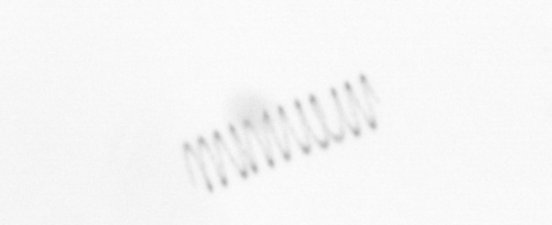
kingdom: Chromista
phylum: Ochrophyta
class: Bacillariophyceae
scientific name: Bacillariophyceae
